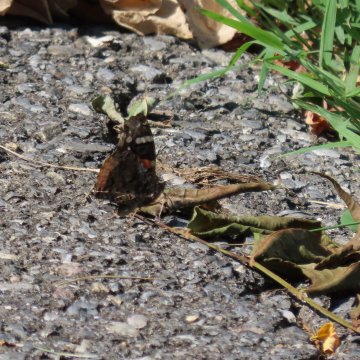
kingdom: Animalia
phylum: Arthropoda
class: Insecta
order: Lepidoptera
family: Nymphalidae
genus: Vanessa
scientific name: Vanessa atalanta
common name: Red Admiral
